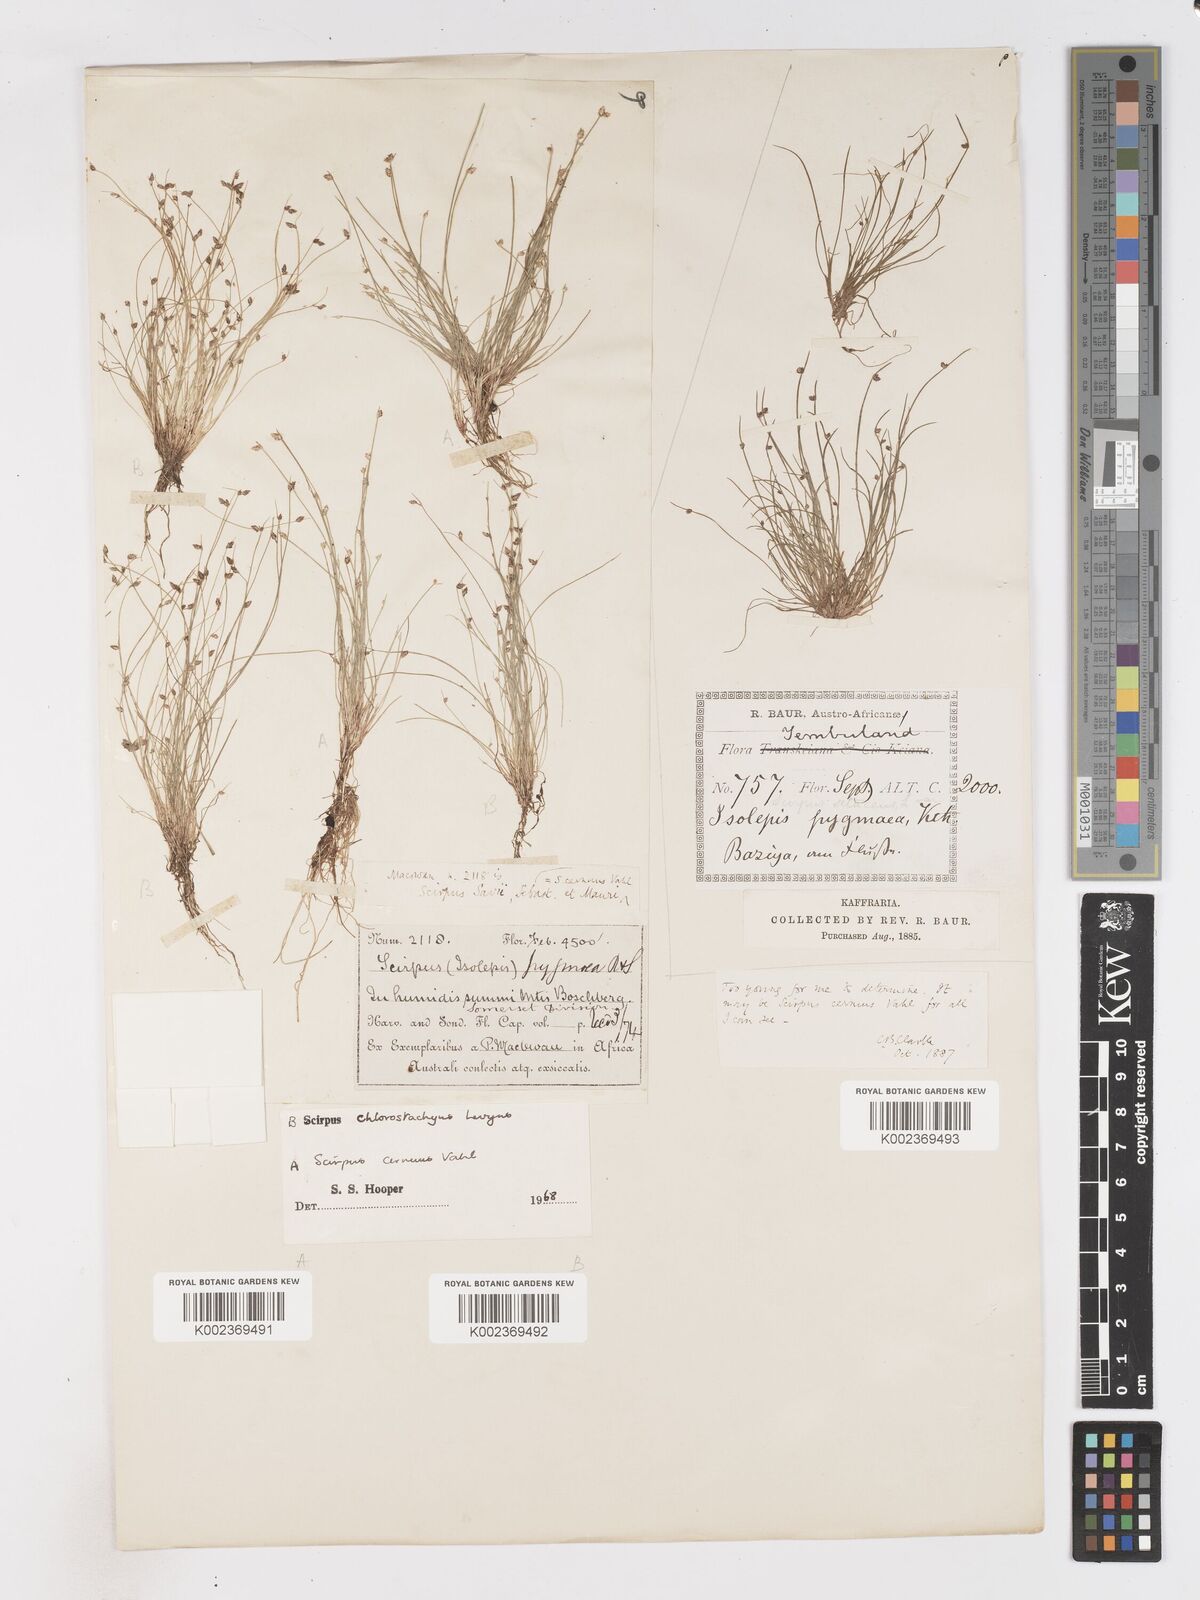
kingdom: Plantae
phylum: Tracheophyta
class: Liliopsida
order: Poales
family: Cyperaceae
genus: Isolepis
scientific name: Isolepis sepulcralis
